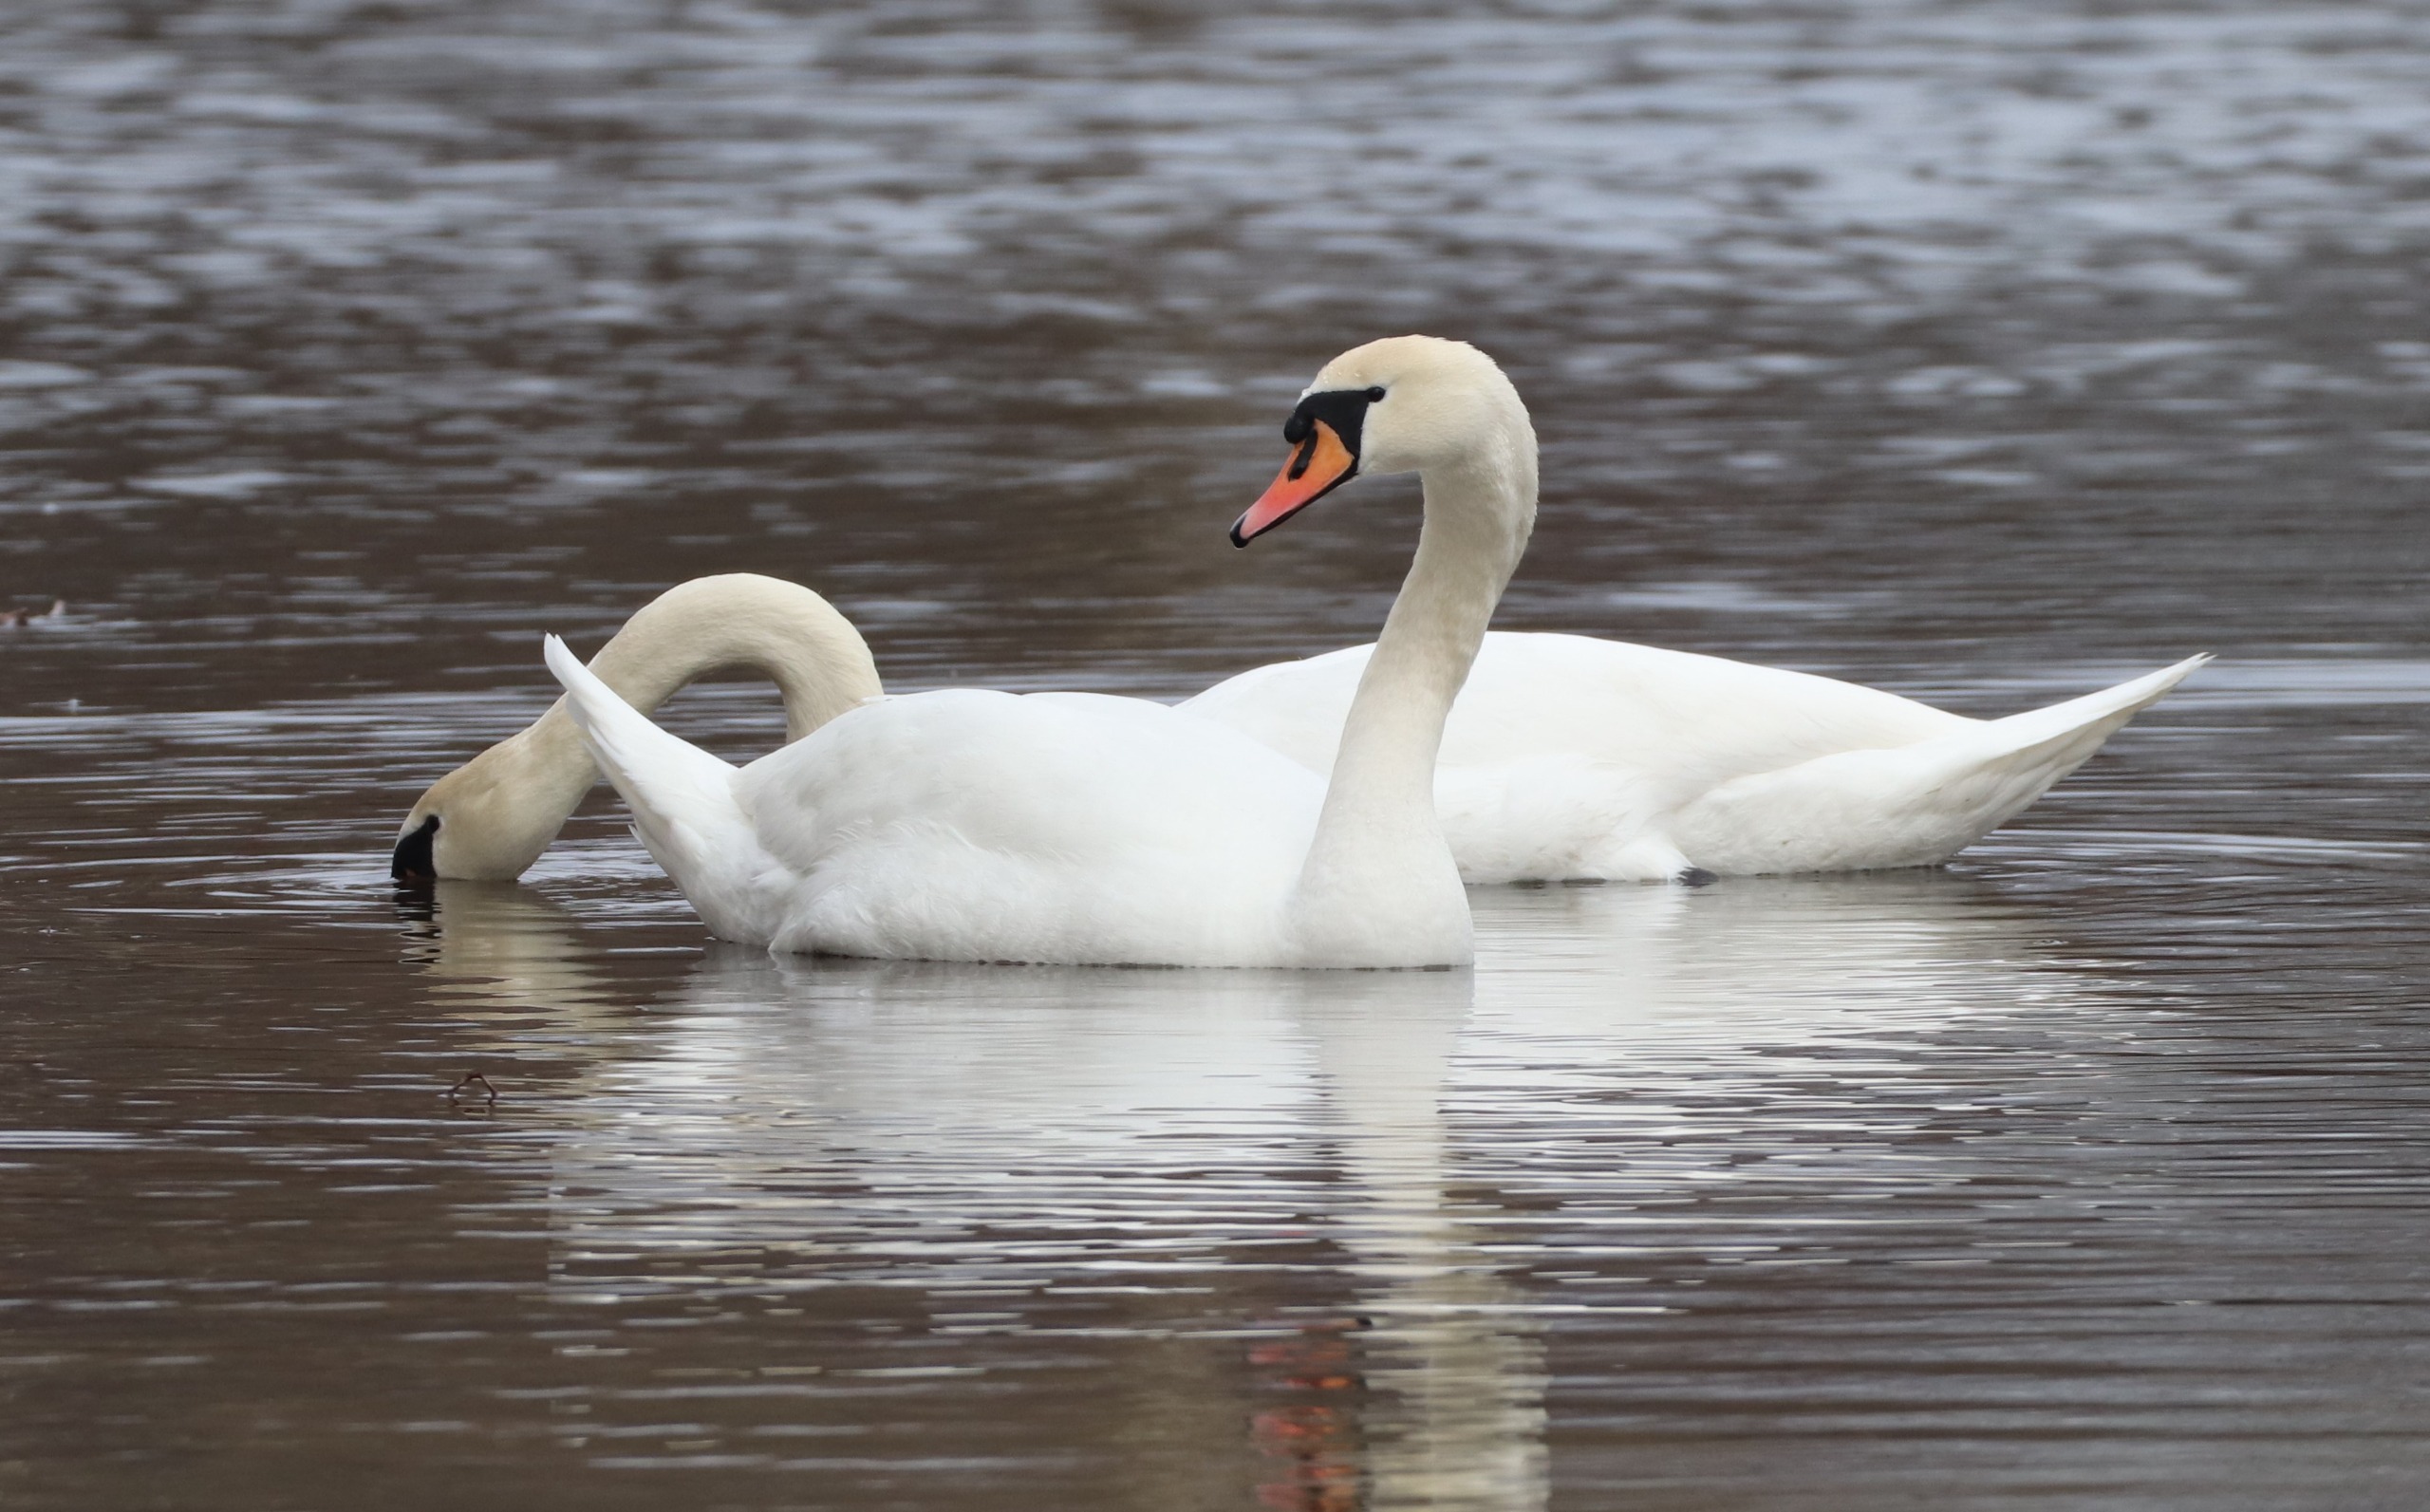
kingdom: Animalia
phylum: Chordata
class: Aves
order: Anseriformes
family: Anatidae
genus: Cygnus
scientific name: Cygnus olor
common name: Knopsvane
